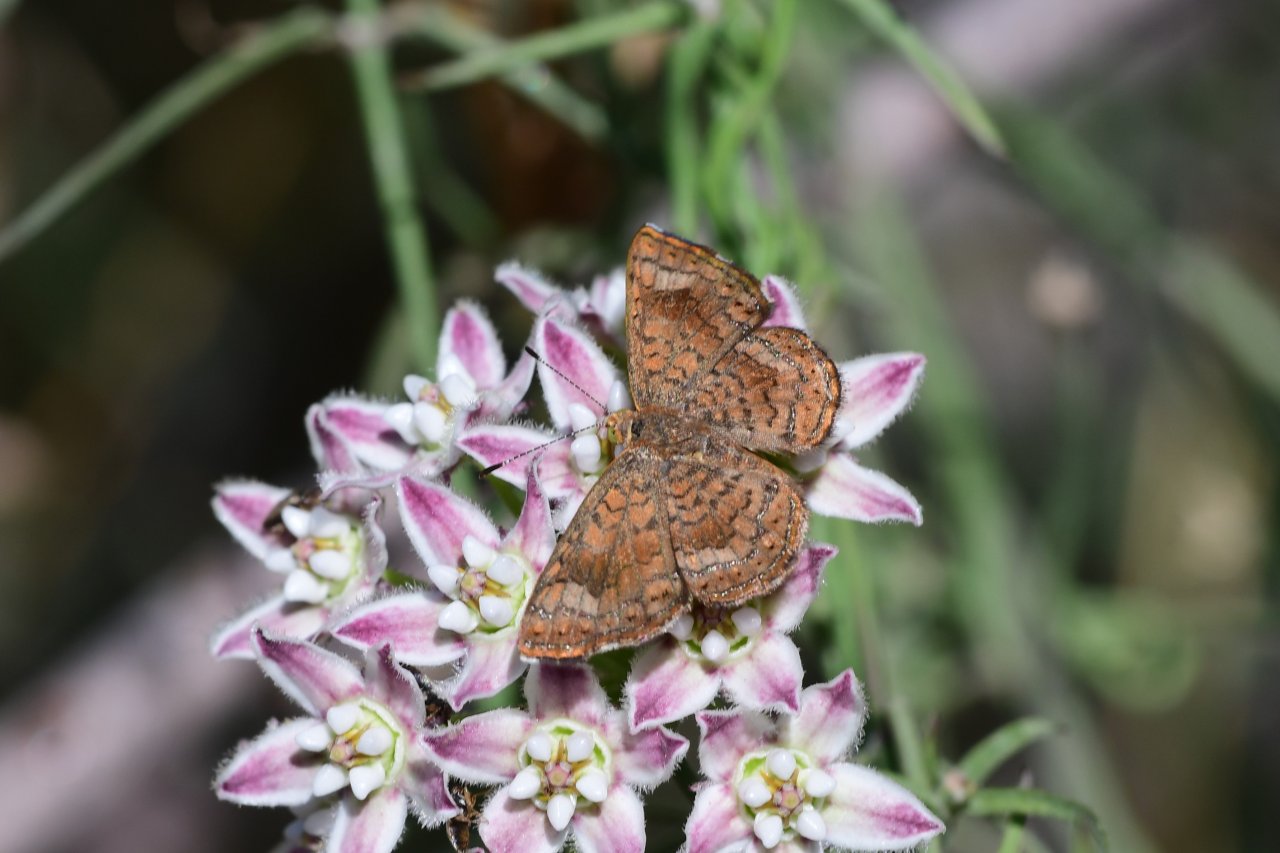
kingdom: Animalia
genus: Calephelis
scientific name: Calephelis nemesis
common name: Fatal Metalmark
